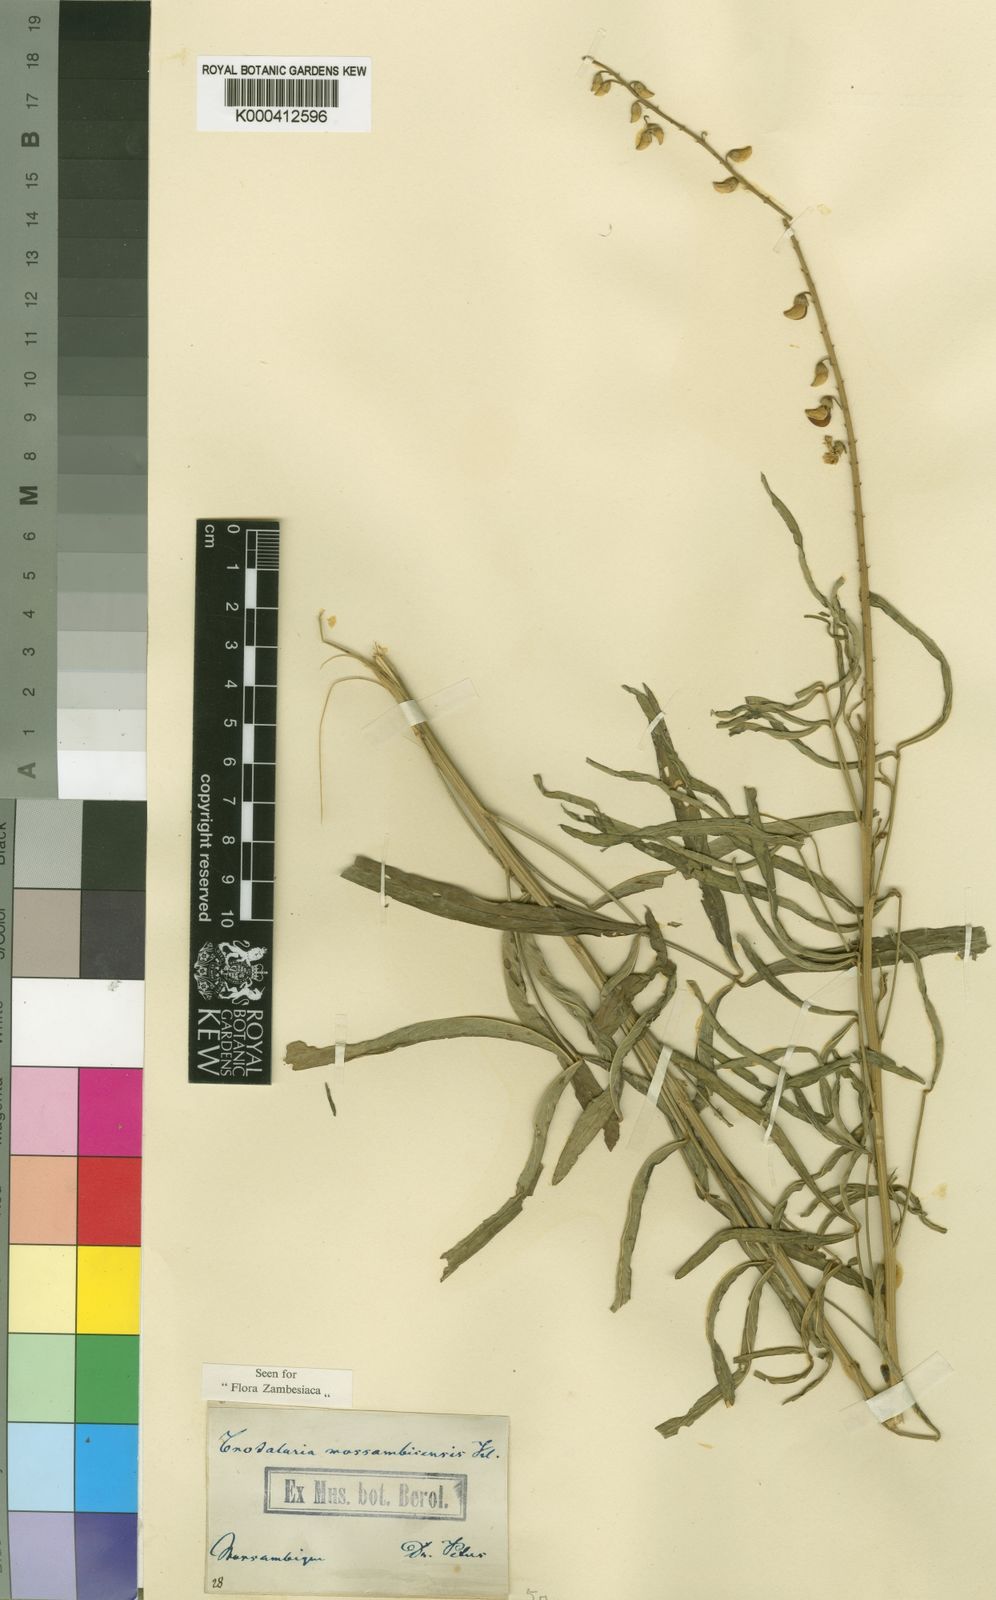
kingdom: Plantae
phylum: Tracheophyta
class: Magnoliopsida
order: Fabales
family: Fabaceae
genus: Crotalaria
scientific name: Crotalaria lanceolata
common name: Lanceleaf rattlebox
